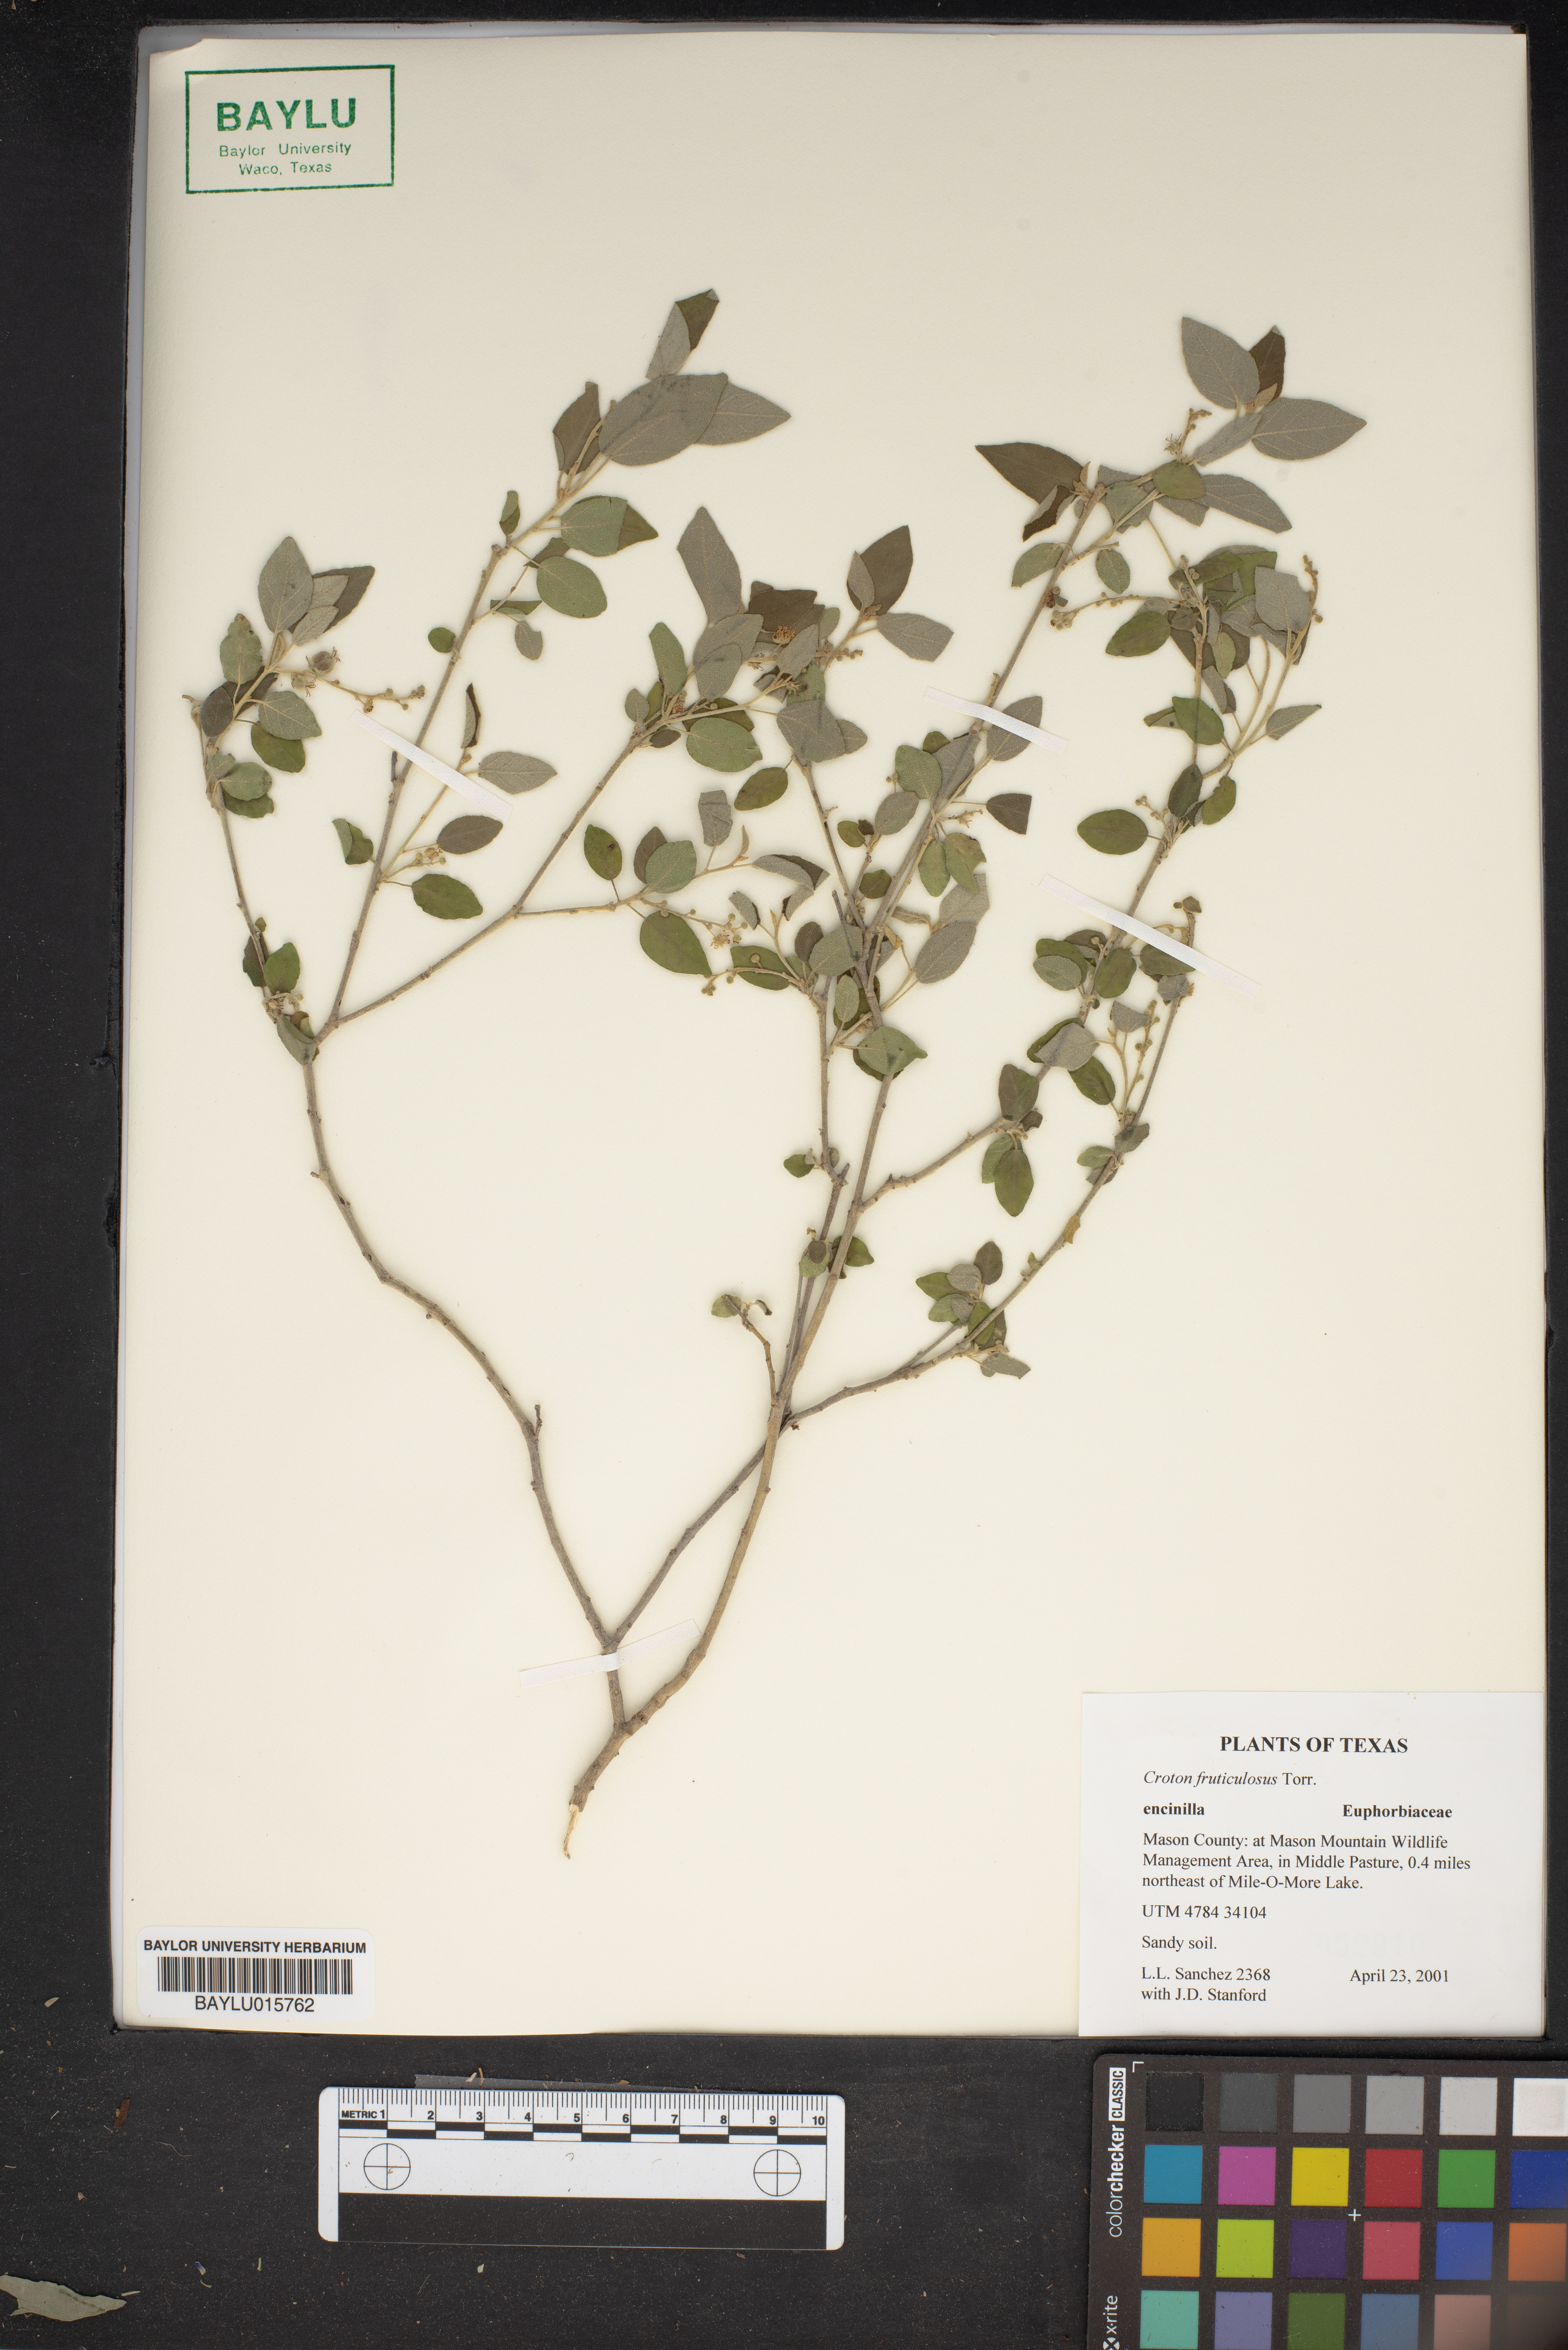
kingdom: Plantae
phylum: Tracheophyta
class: Magnoliopsida
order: Malpighiales
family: Euphorbiaceae
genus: Croton
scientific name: Croton fruticulosus
